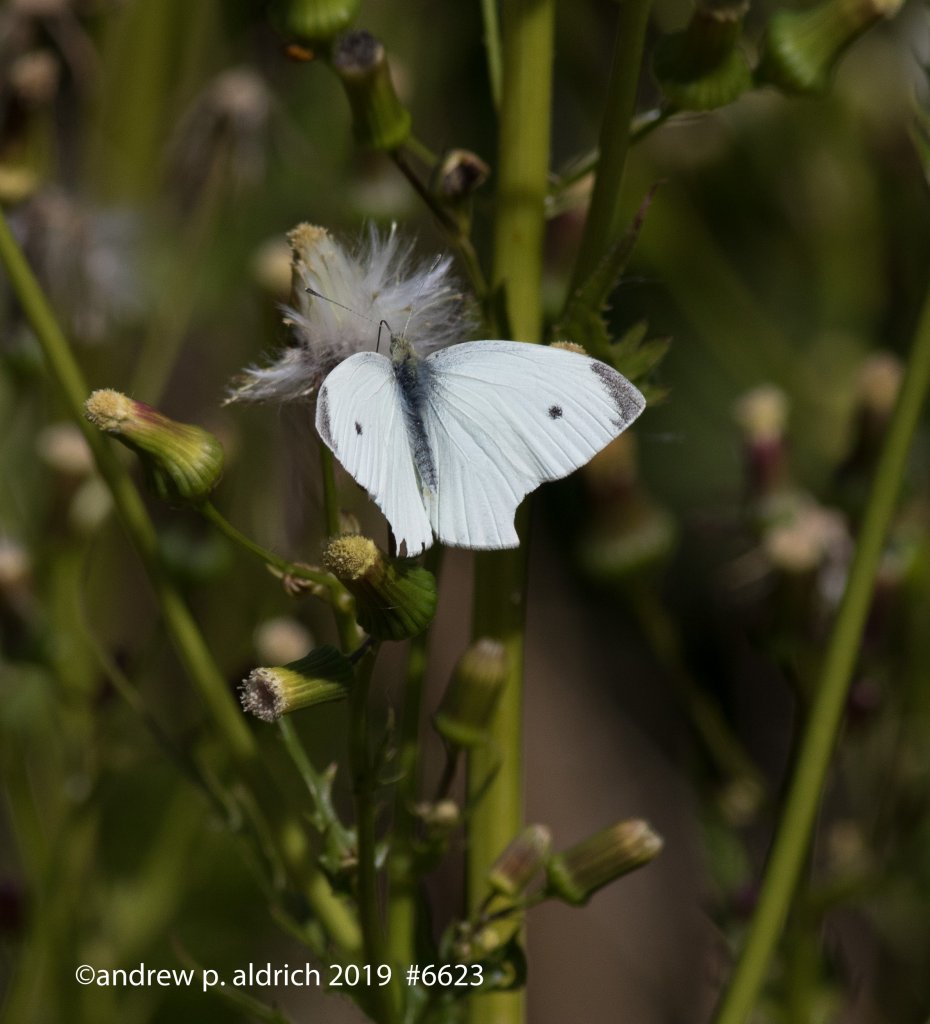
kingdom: Animalia
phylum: Arthropoda
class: Insecta
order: Lepidoptera
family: Pieridae
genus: Pieris
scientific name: Pieris rapae
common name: Cabbage White
